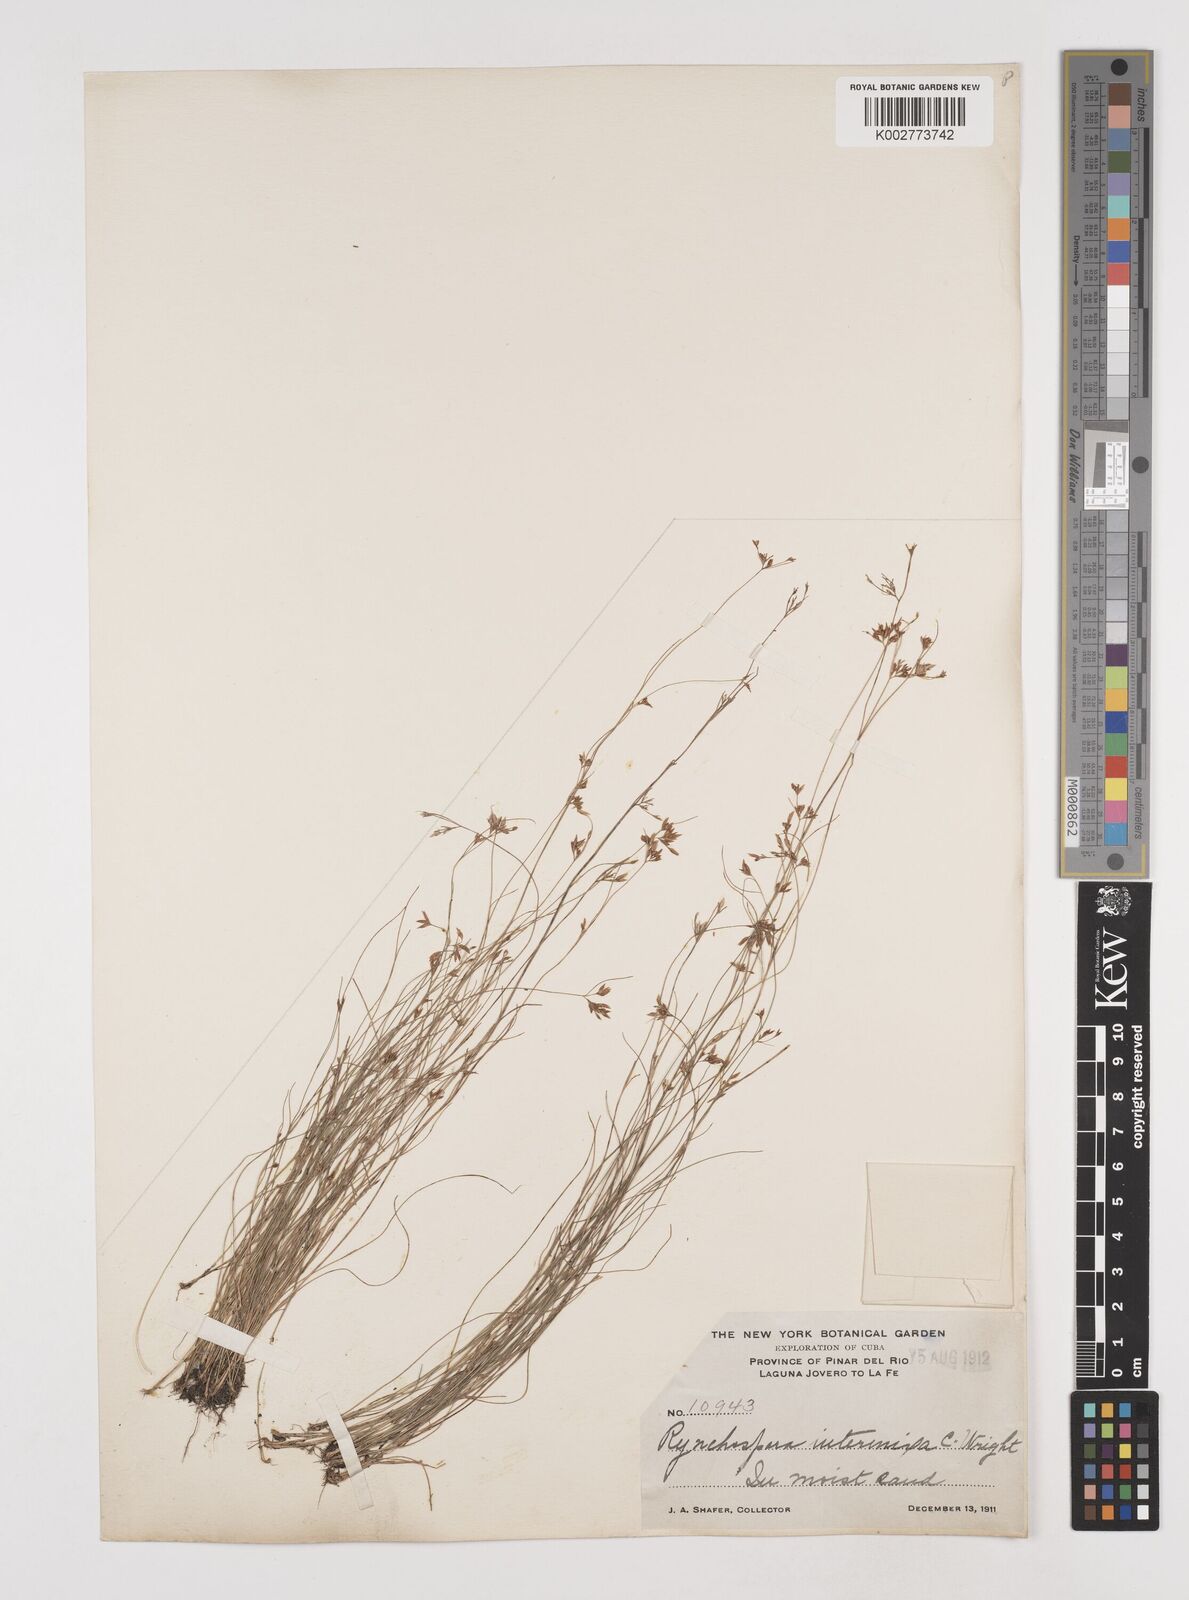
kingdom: Plantae
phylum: Tracheophyta
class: Liliopsida
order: Poales
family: Cyperaceae
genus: Rhynchospora
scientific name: Rhynchospora intermixta
